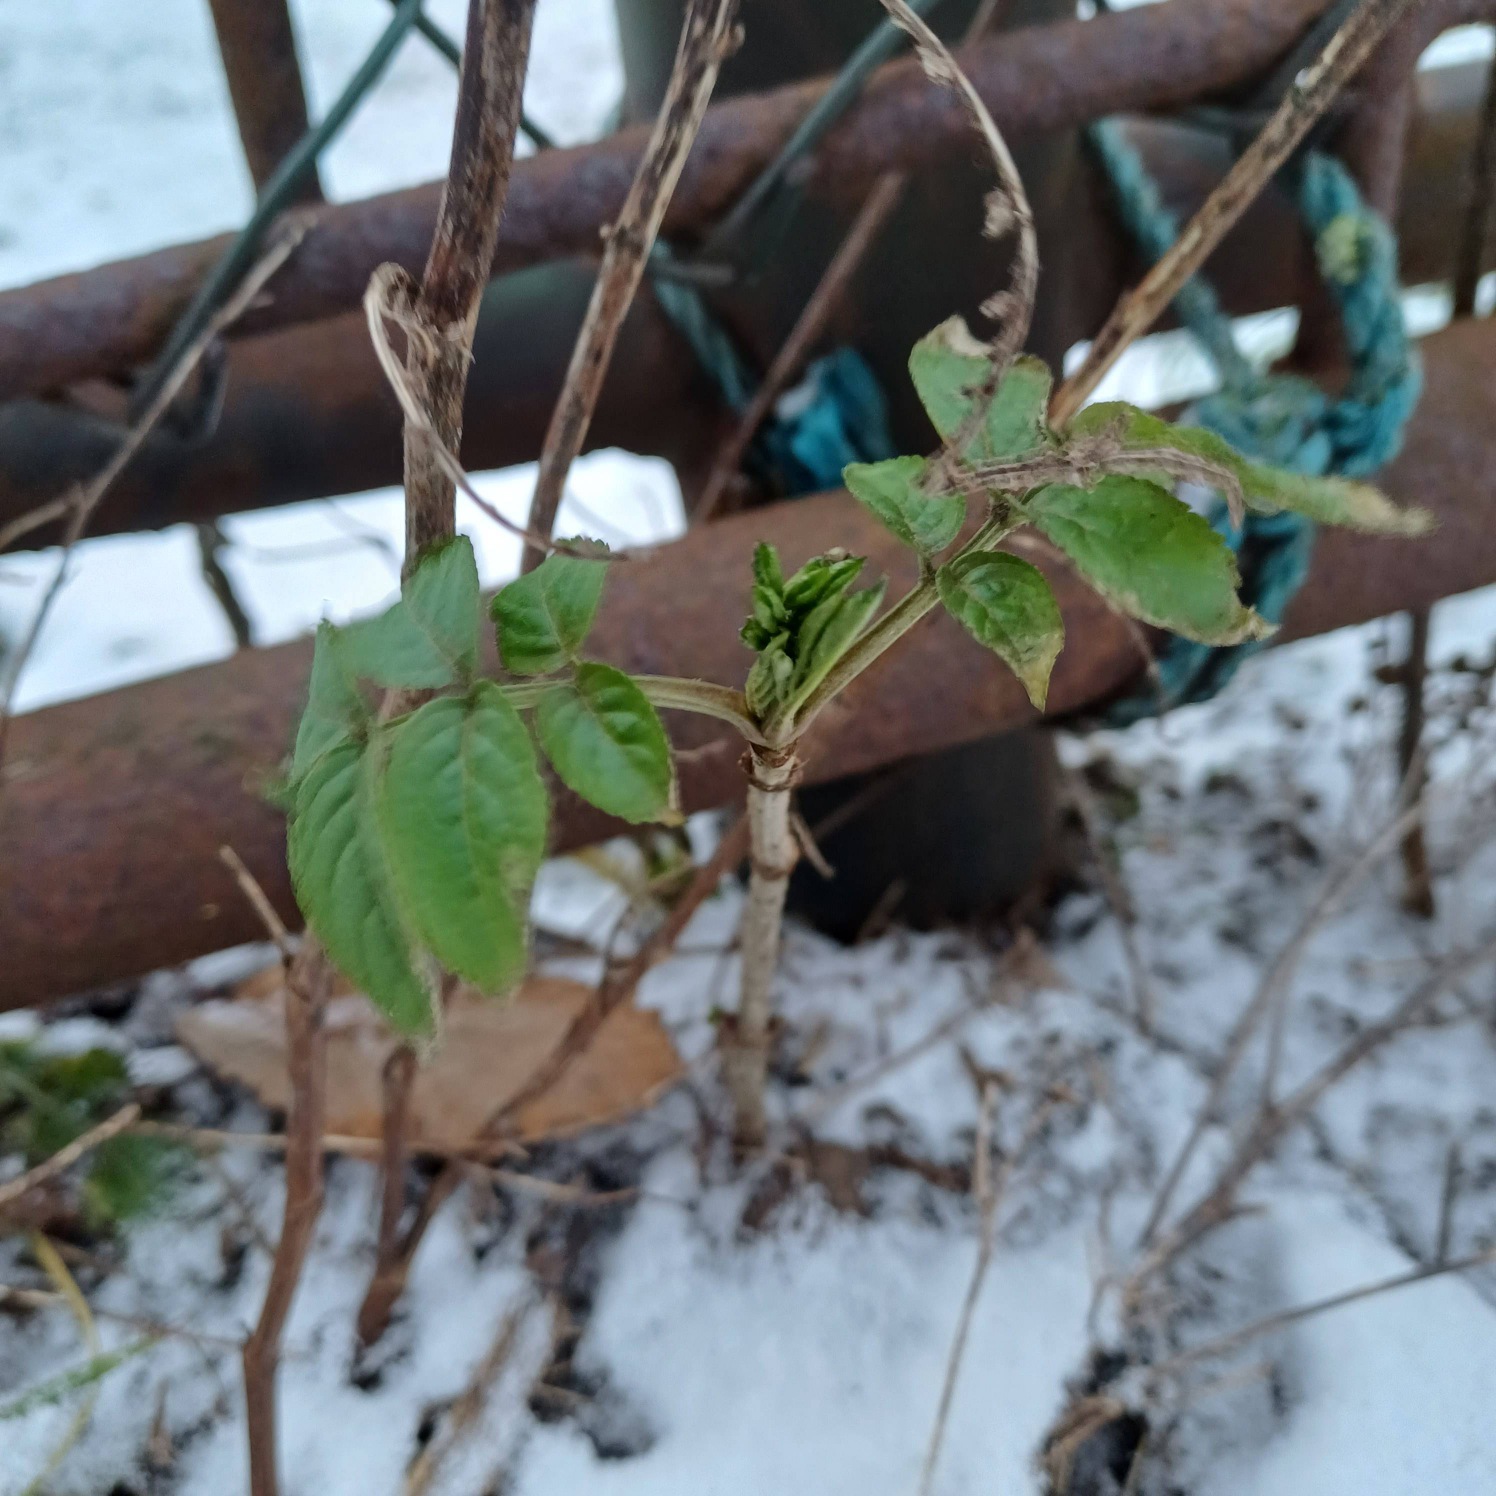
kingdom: Plantae
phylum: Tracheophyta
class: Magnoliopsida
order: Dipsacales
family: Viburnaceae
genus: Sambucus
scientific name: Sambucus nigra
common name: Almindelig hyld
